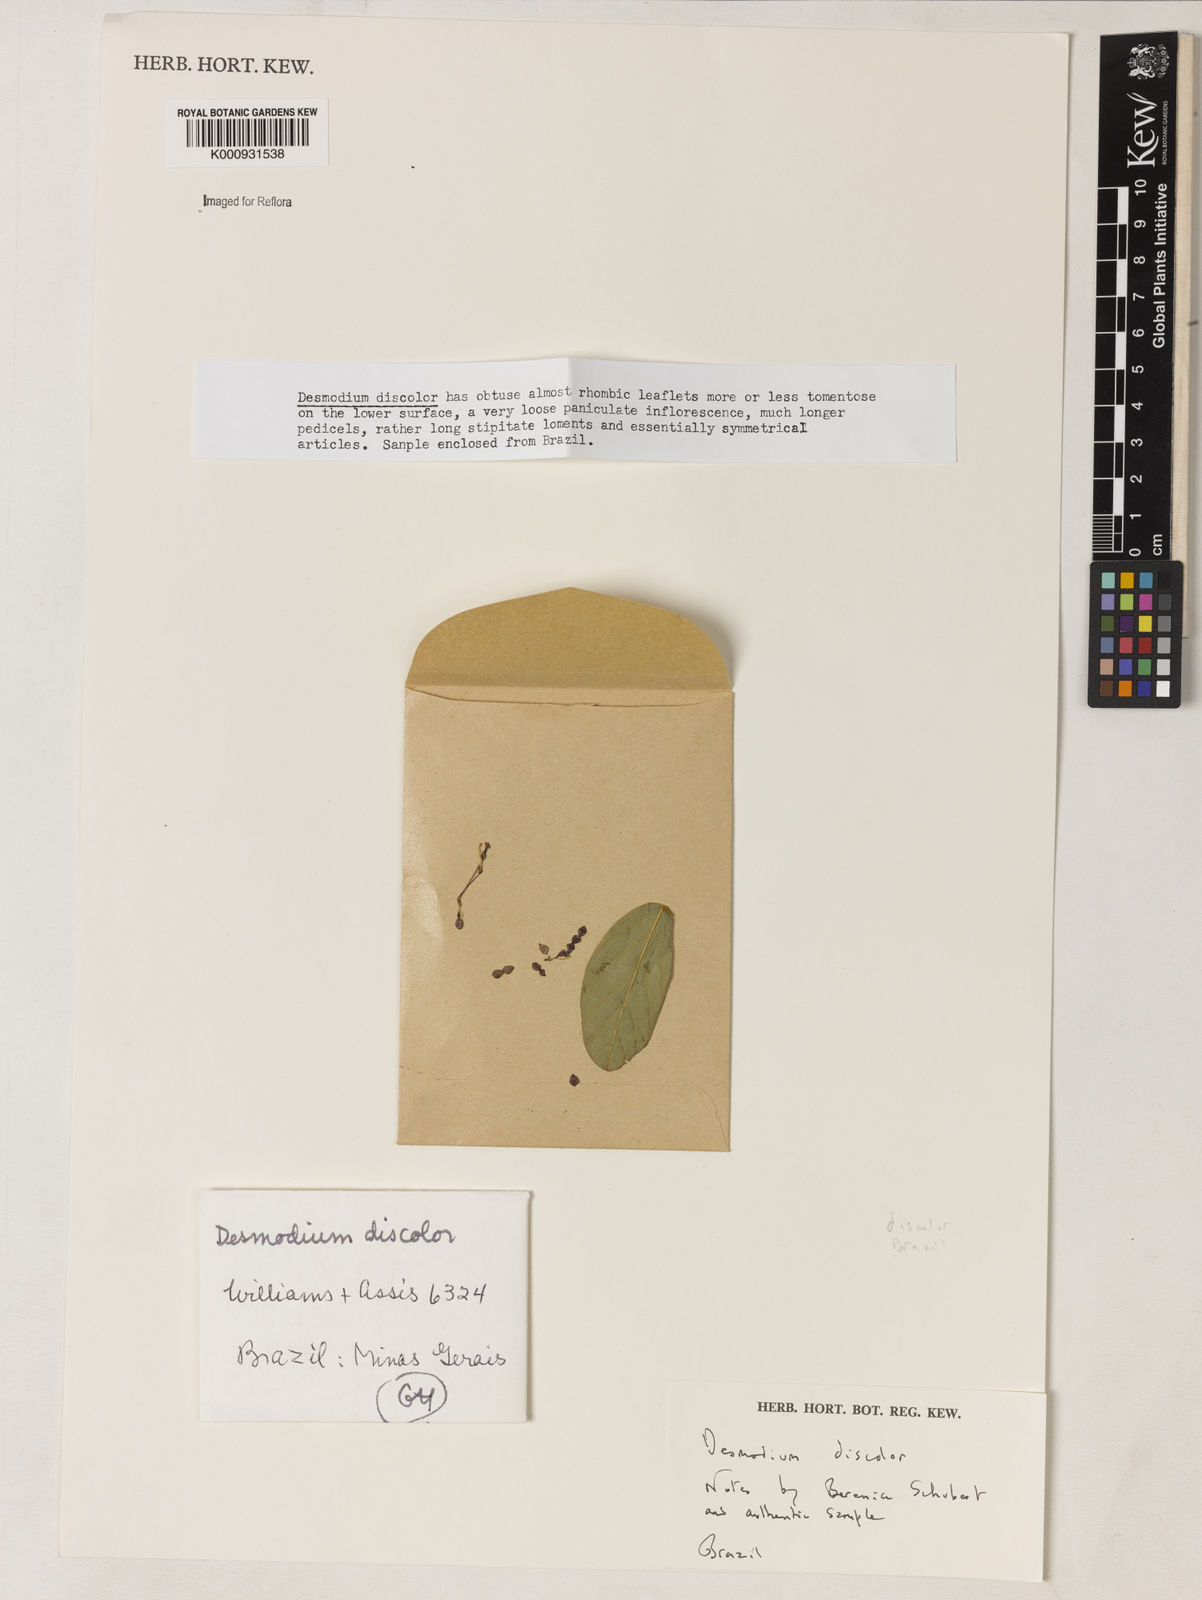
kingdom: Plantae
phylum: Tracheophyta
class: Magnoliopsida
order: Fabales
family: Fabaceae
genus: Desmodium
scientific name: Desmodium subsecundum
